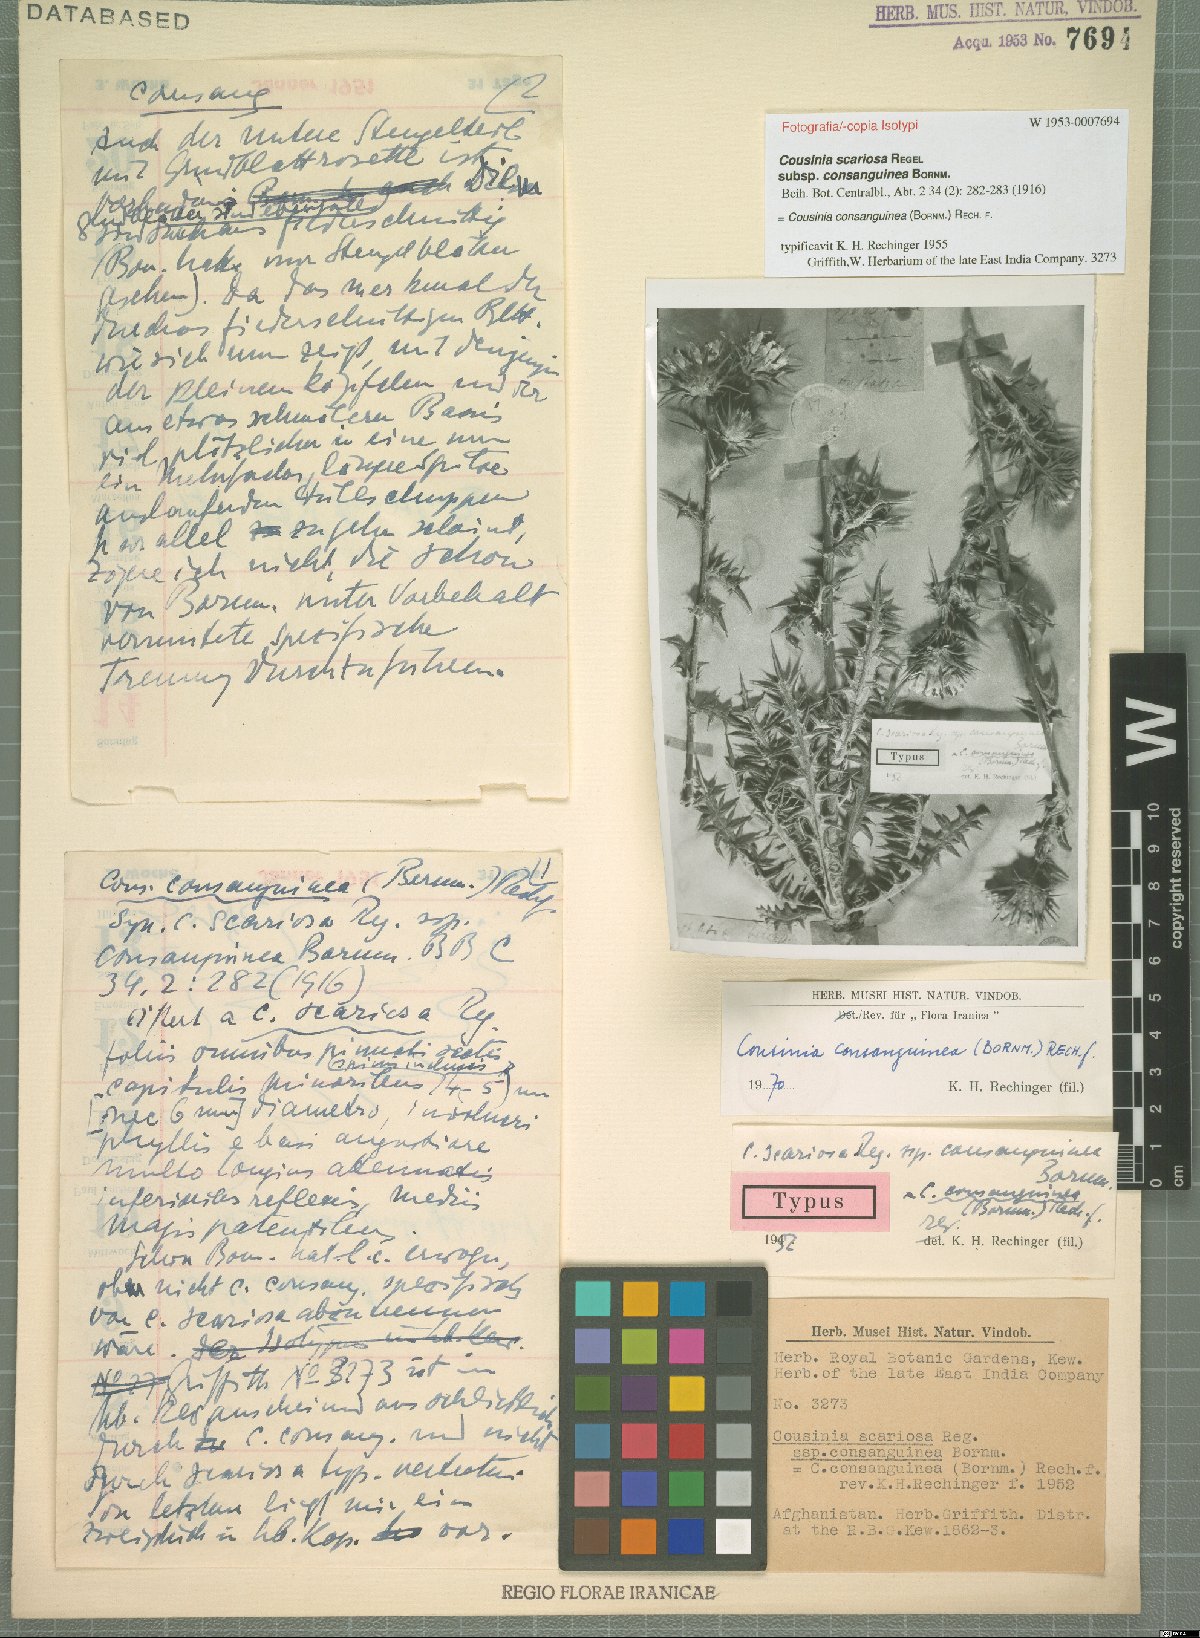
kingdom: Plantae
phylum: Tracheophyta
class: Magnoliopsida
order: Asterales
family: Asteraceae
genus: Cousinia
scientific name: Cousinia consanguinea
